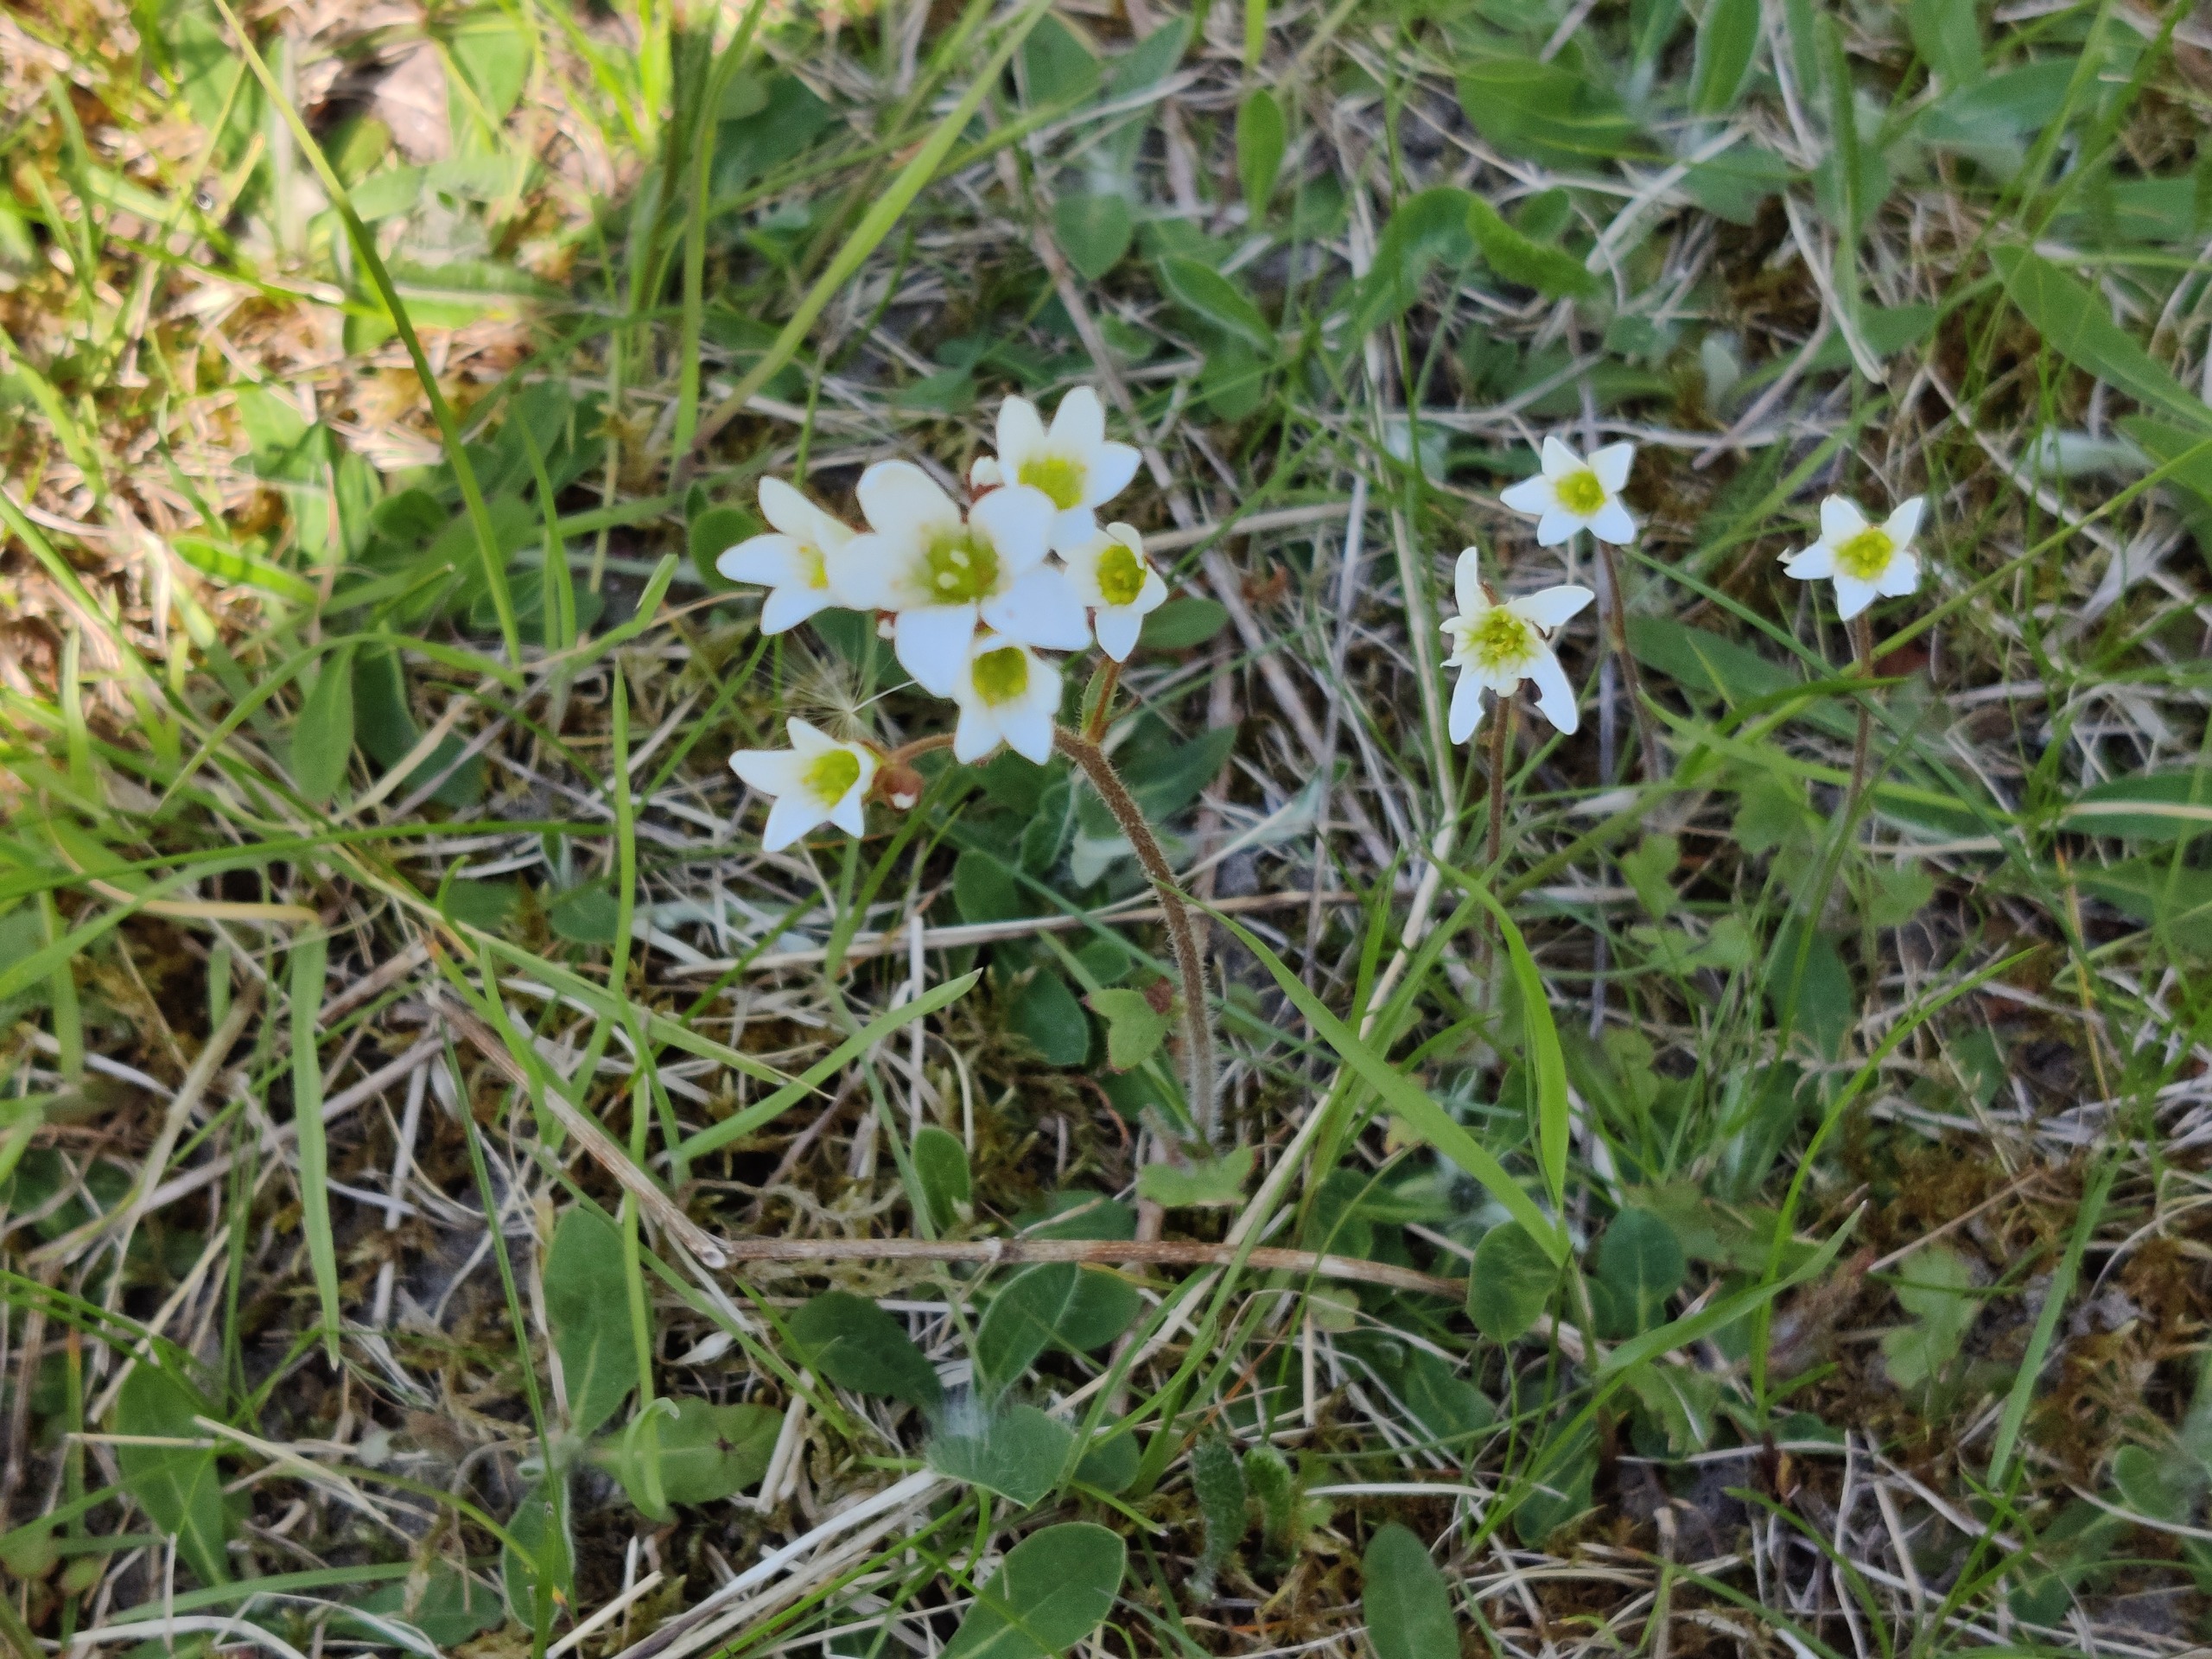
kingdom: Plantae
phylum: Tracheophyta
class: Magnoliopsida
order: Saxifragales
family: Saxifragaceae
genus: Saxifraga
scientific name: Saxifraga granulata
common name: Kornet stenbræk
